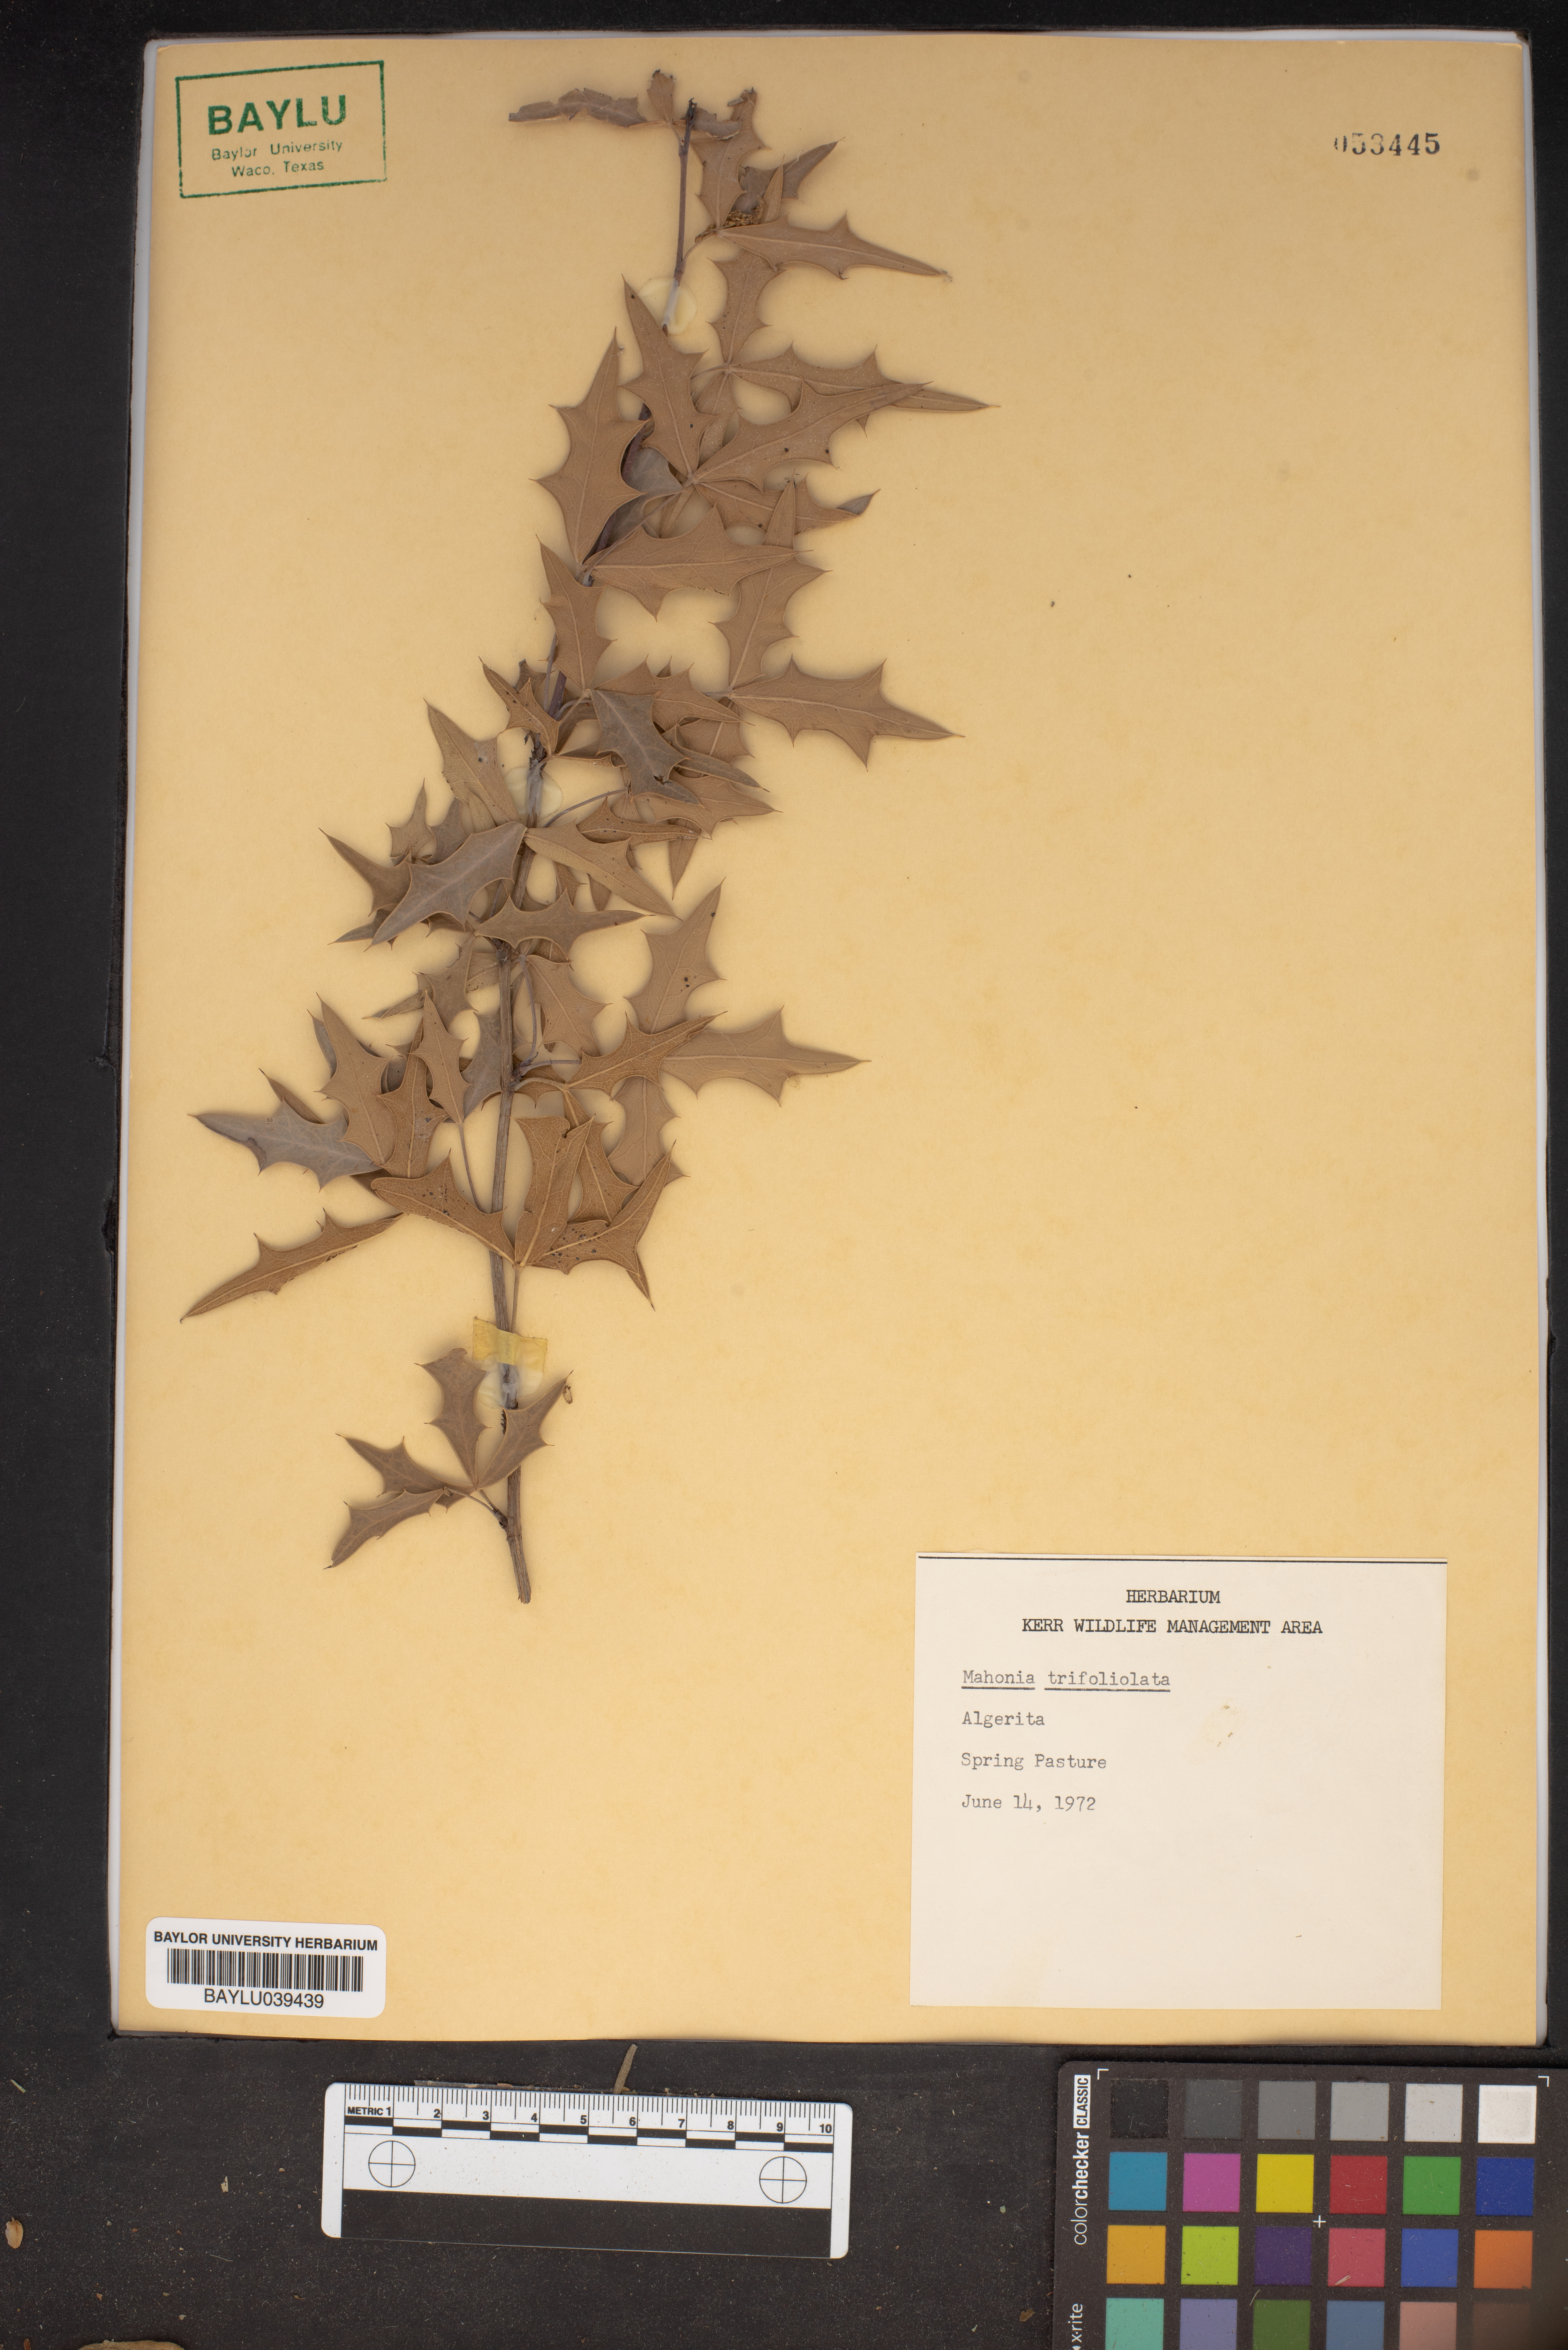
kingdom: Plantae
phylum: Tracheophyta
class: Magnoliopsida
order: Ranunculales
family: Berberidaceae
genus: Mahonia
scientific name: Mahonia trifolia
